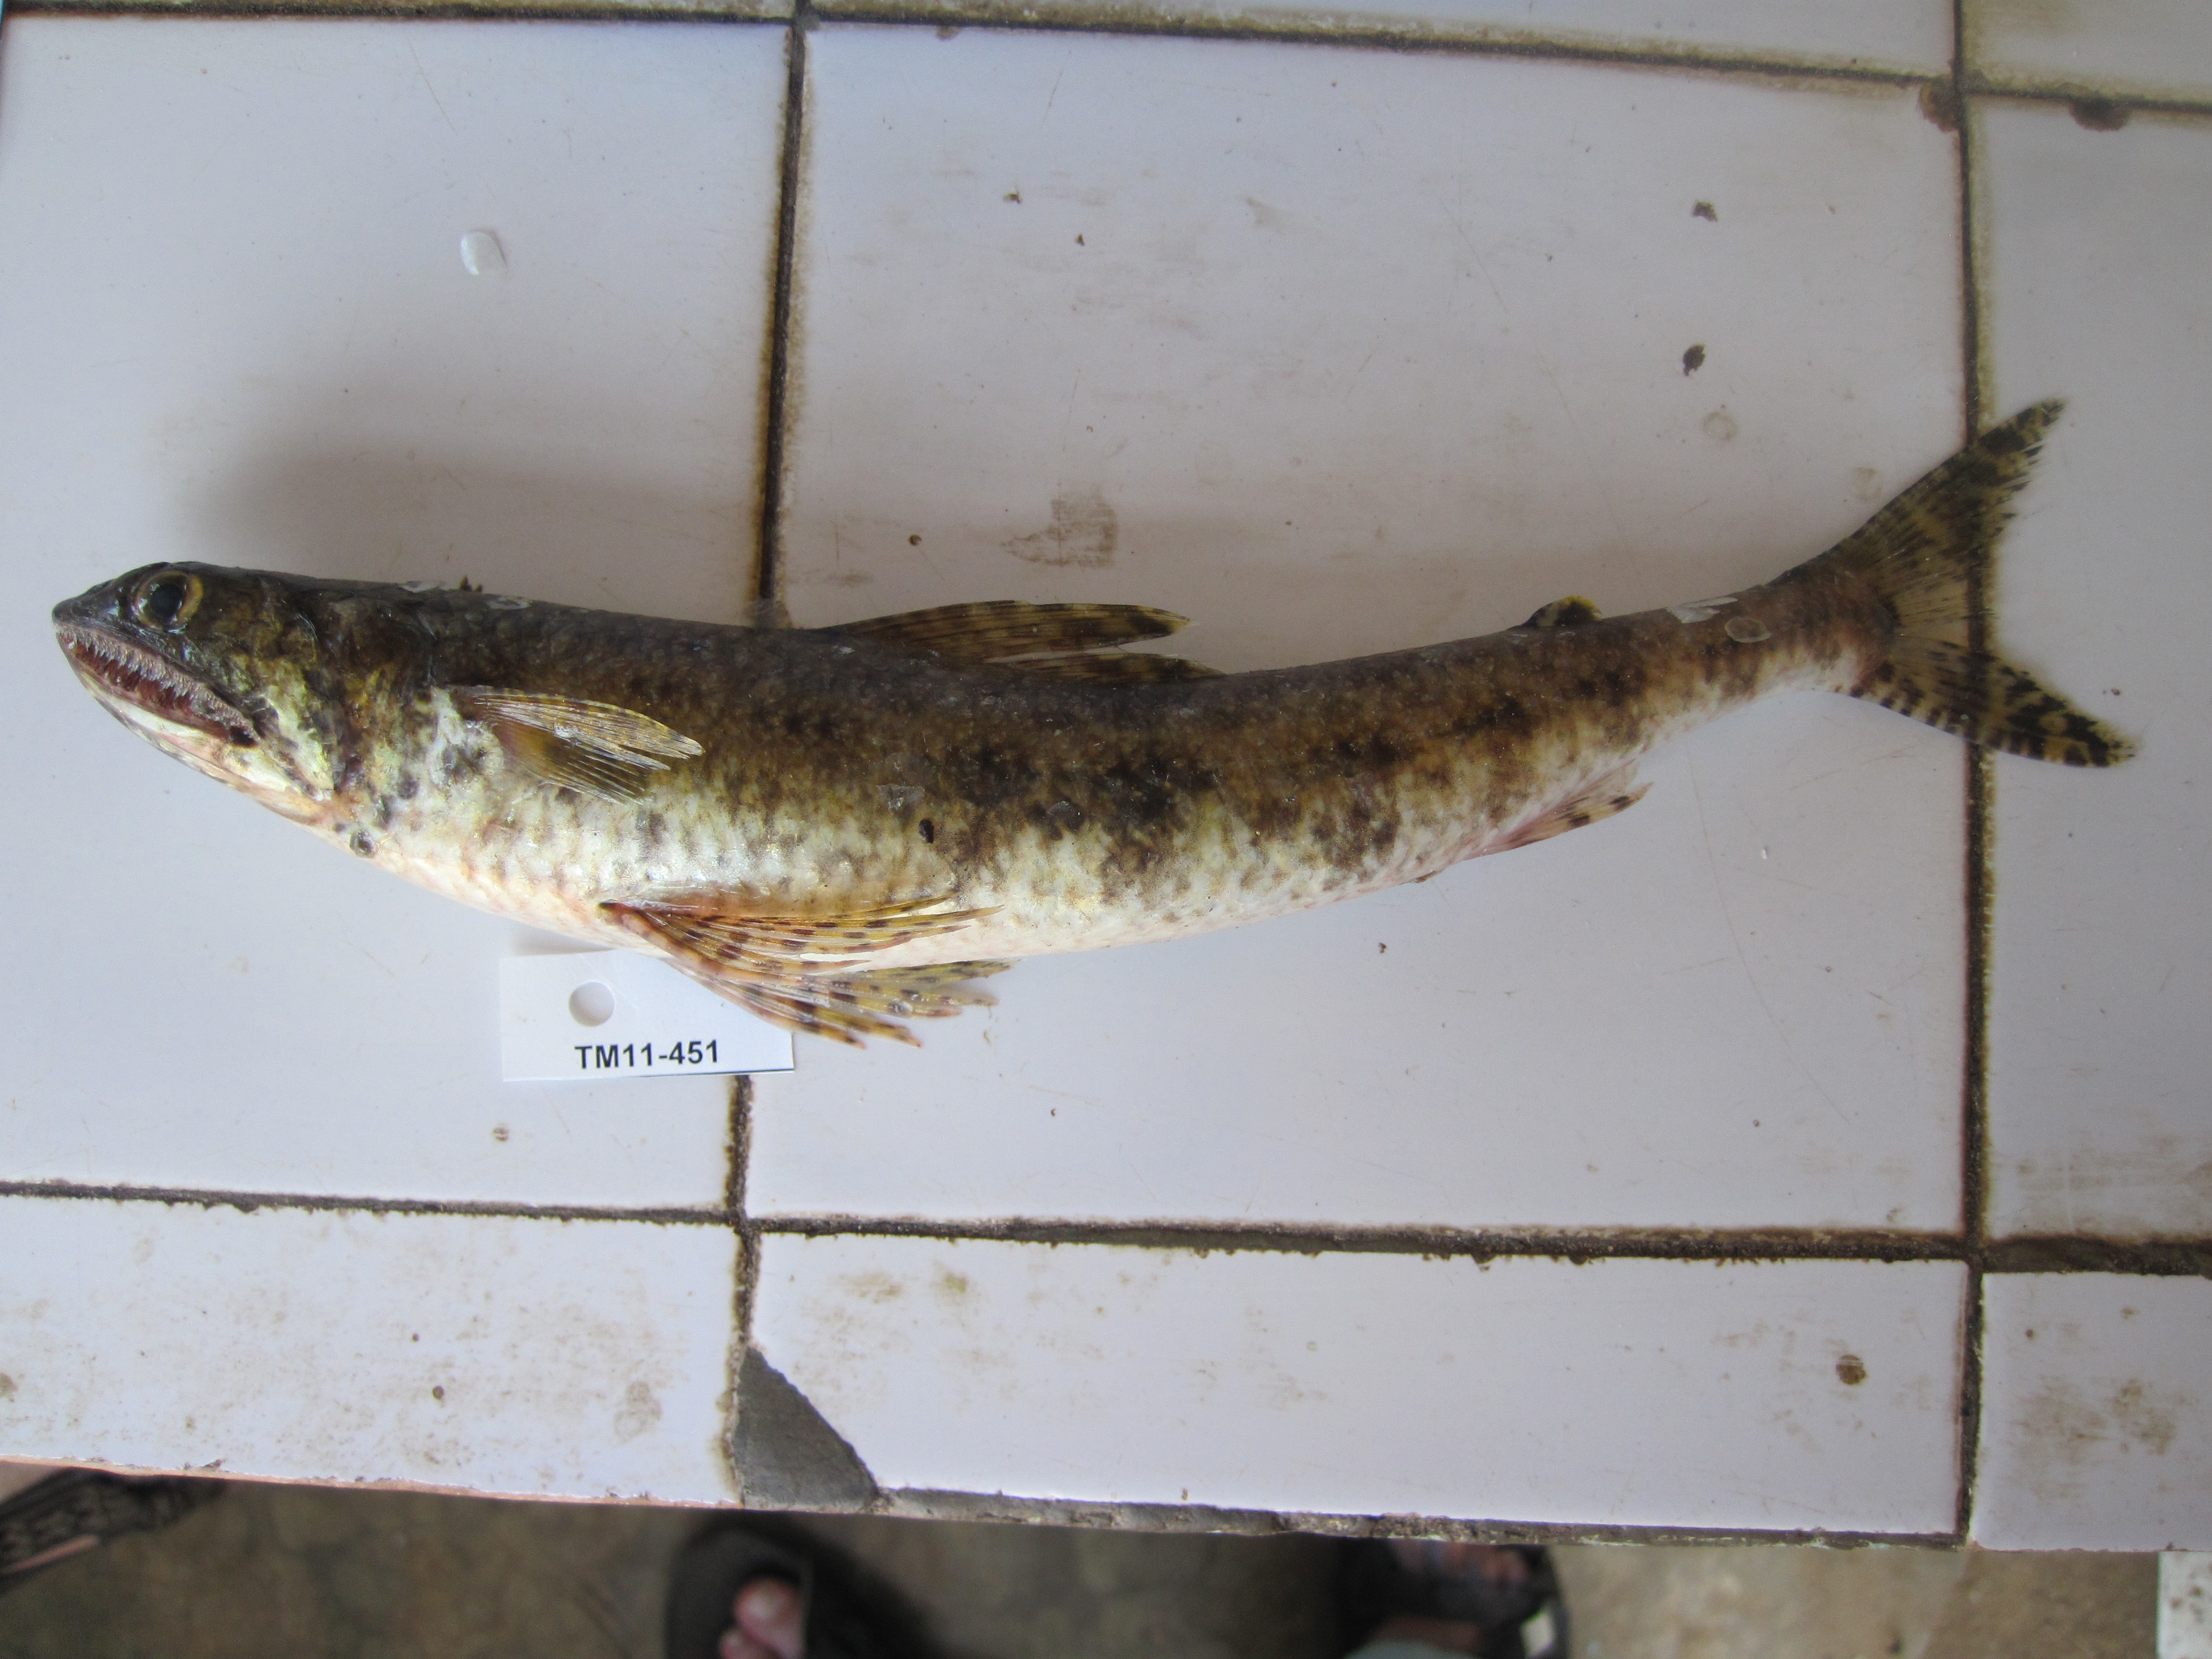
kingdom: Animalia
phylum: Chordata
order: Aulopiformes
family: Synodontidae
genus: Saurida
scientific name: Saurida gracilis
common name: Slender lizardfish
